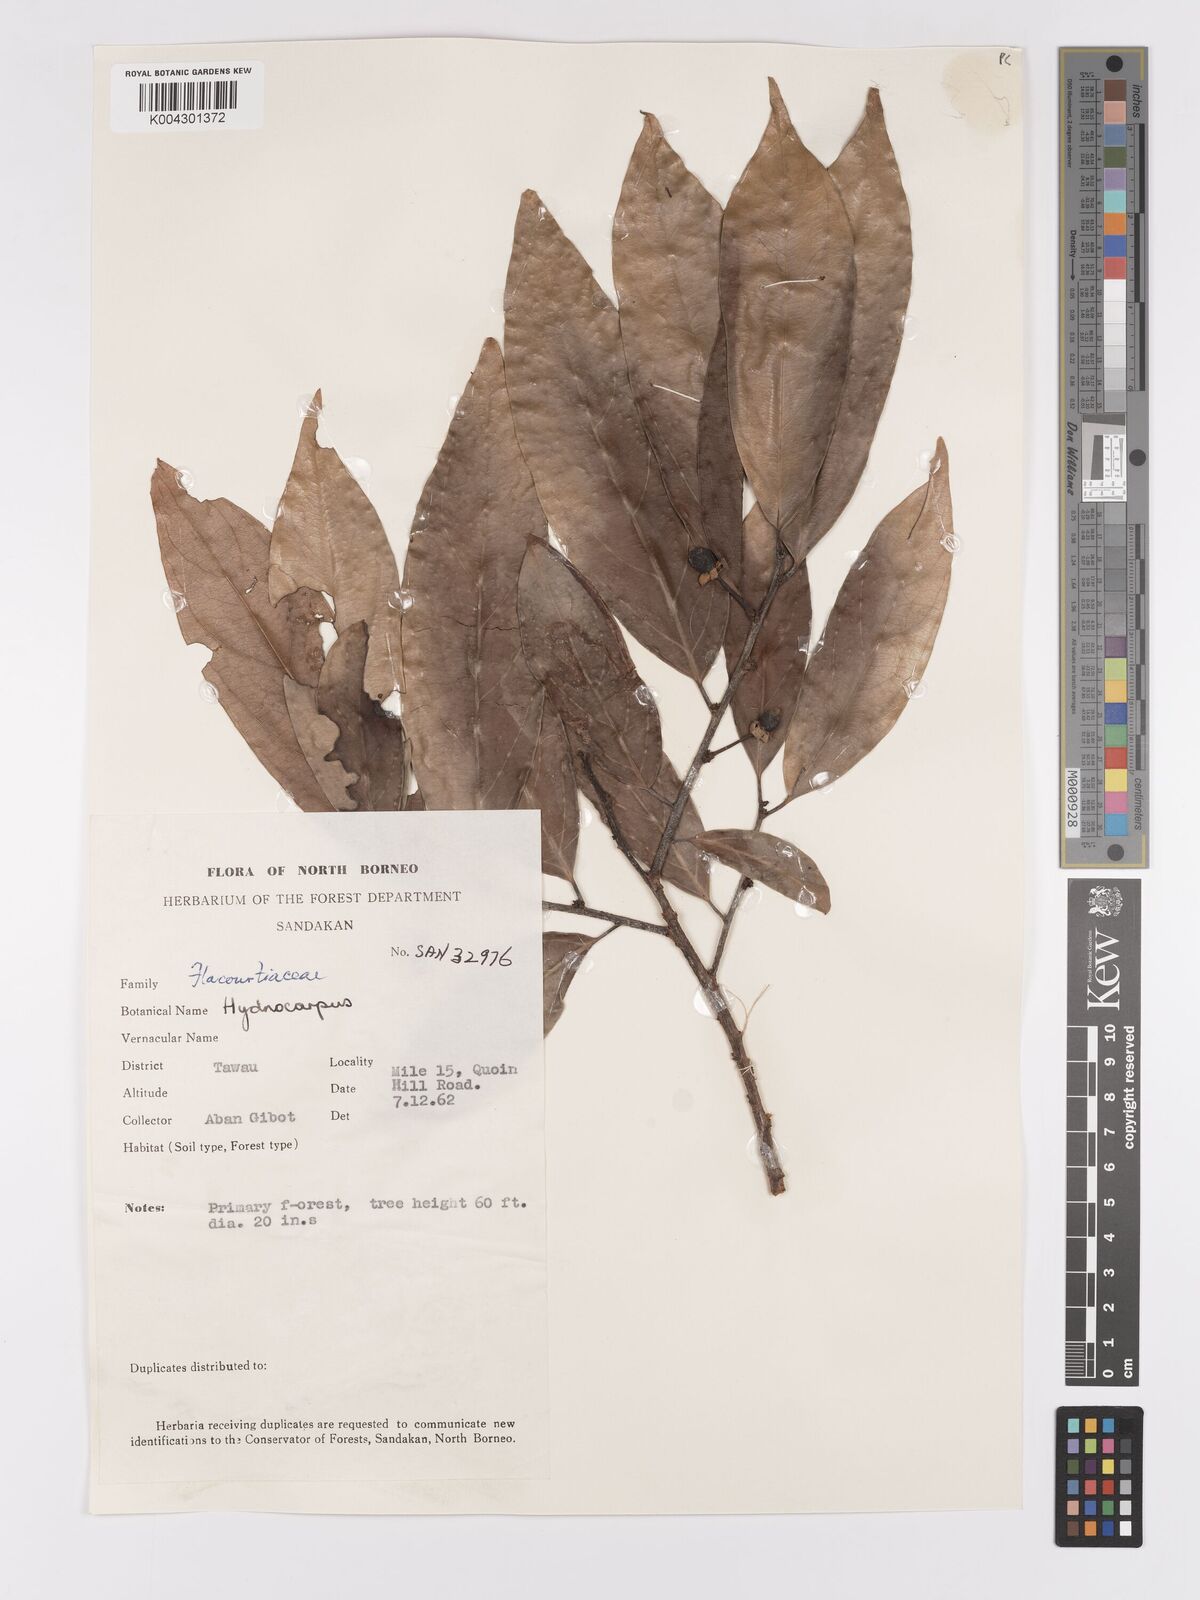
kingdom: Plantae
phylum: Tracheophyta
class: Magnoliopsida
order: Malpighiales
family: Achariaceae
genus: Hydnocarpus
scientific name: Hydnocarpus
